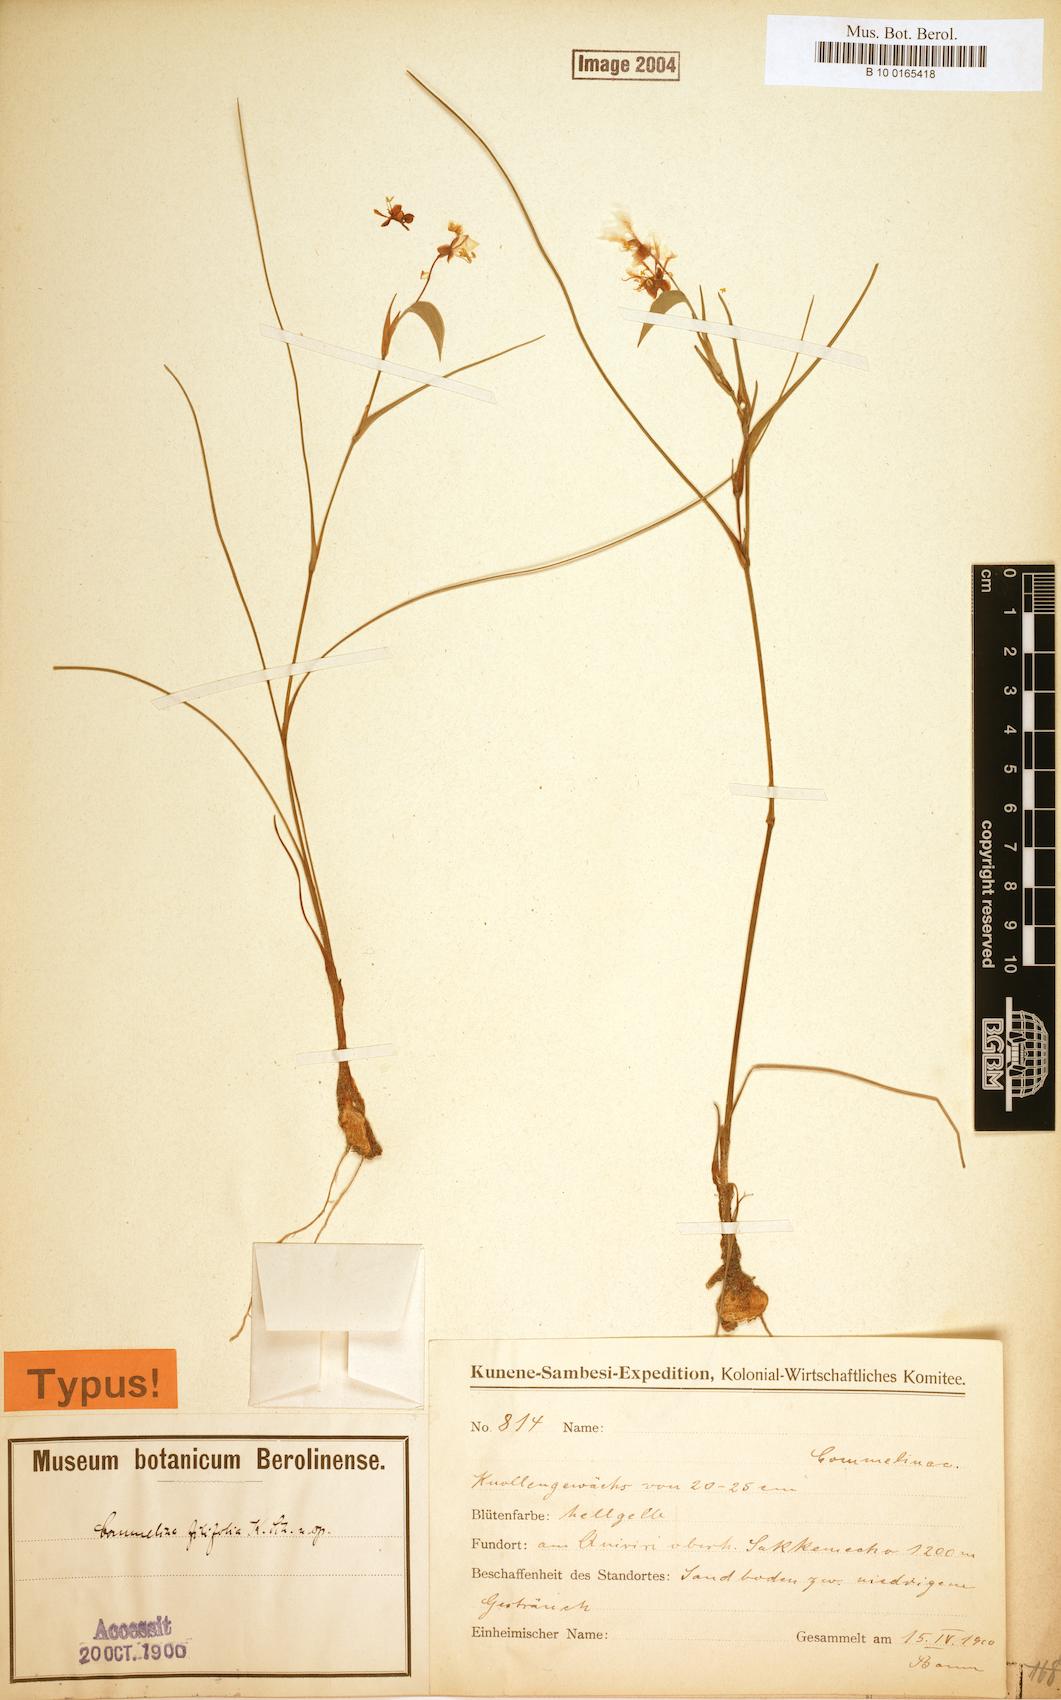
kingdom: Plantae
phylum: Tracheophyta
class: Liliopsida
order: Commelinales
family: Commelinaceae
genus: Commelina
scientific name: Commelina welwitschii
